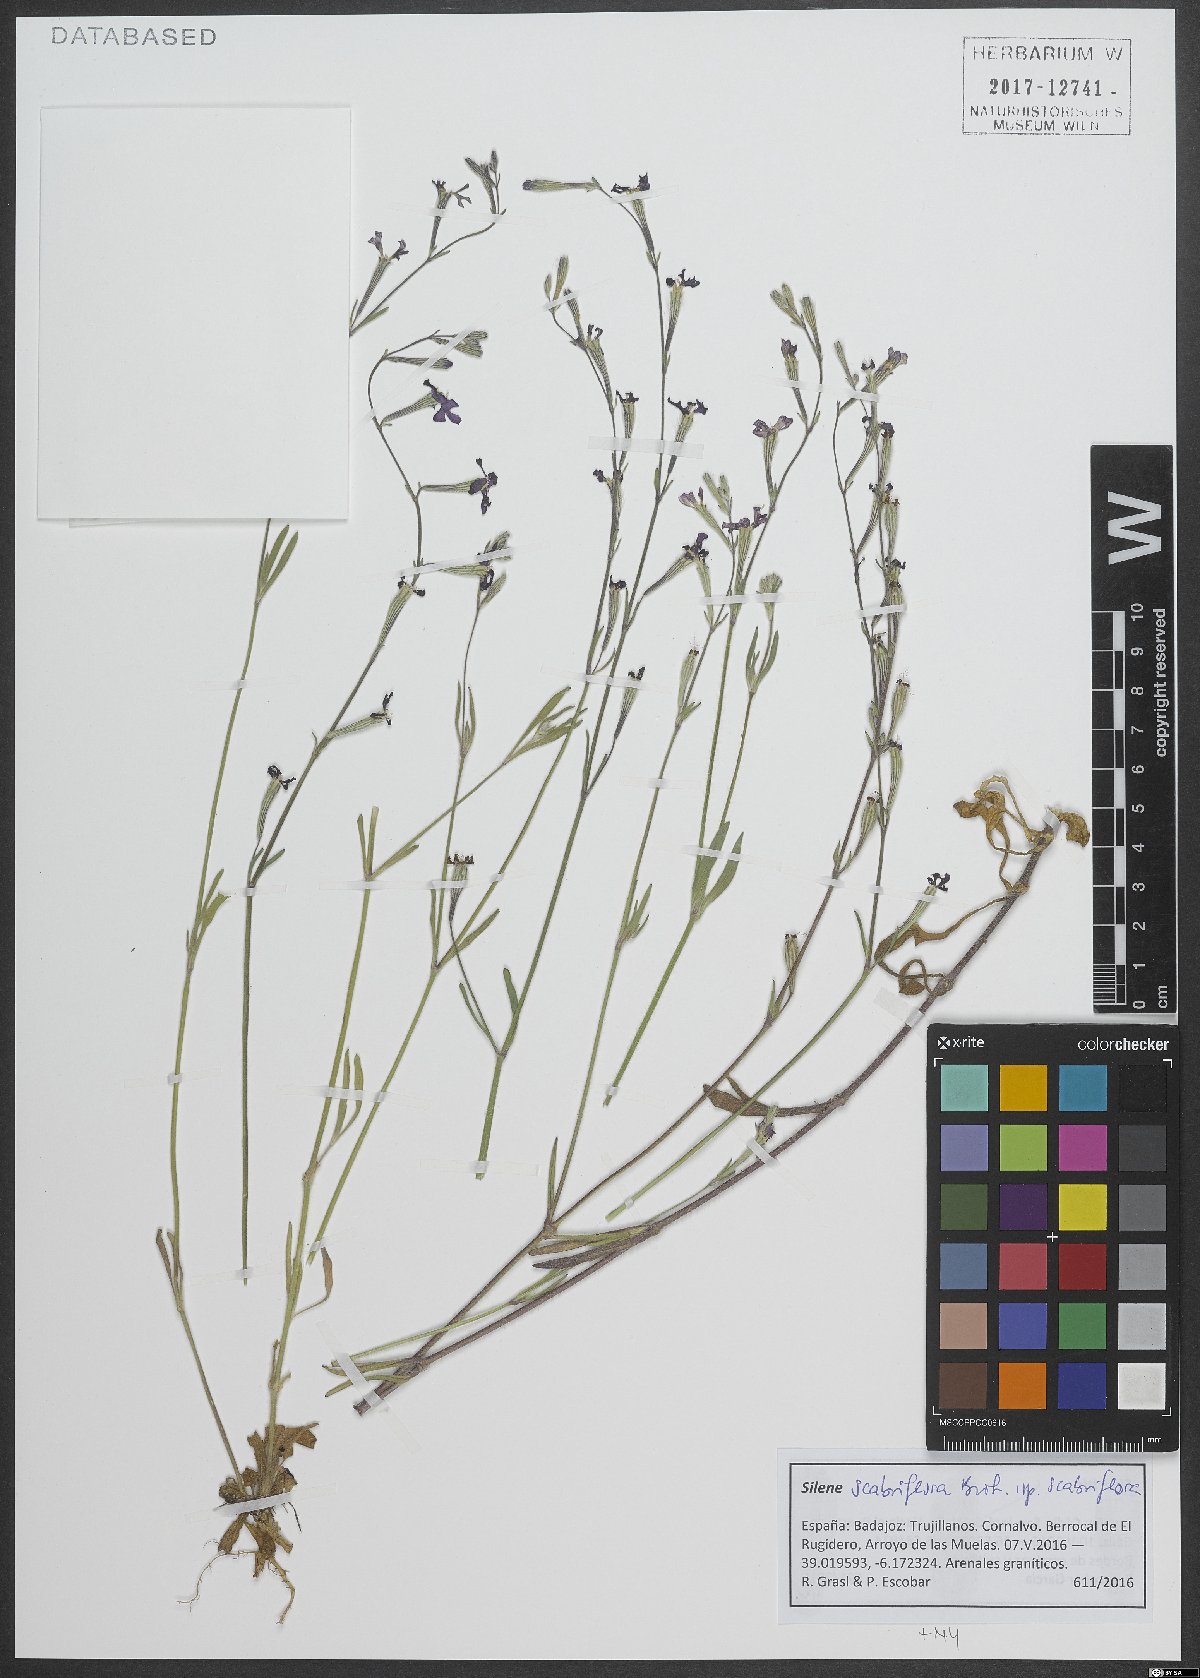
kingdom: Plantae
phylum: Tracheophyta
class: Magnoliopsida
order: Caryophyllales
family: Caryophyllaceae
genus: Silene
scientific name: Silene scabriflora
